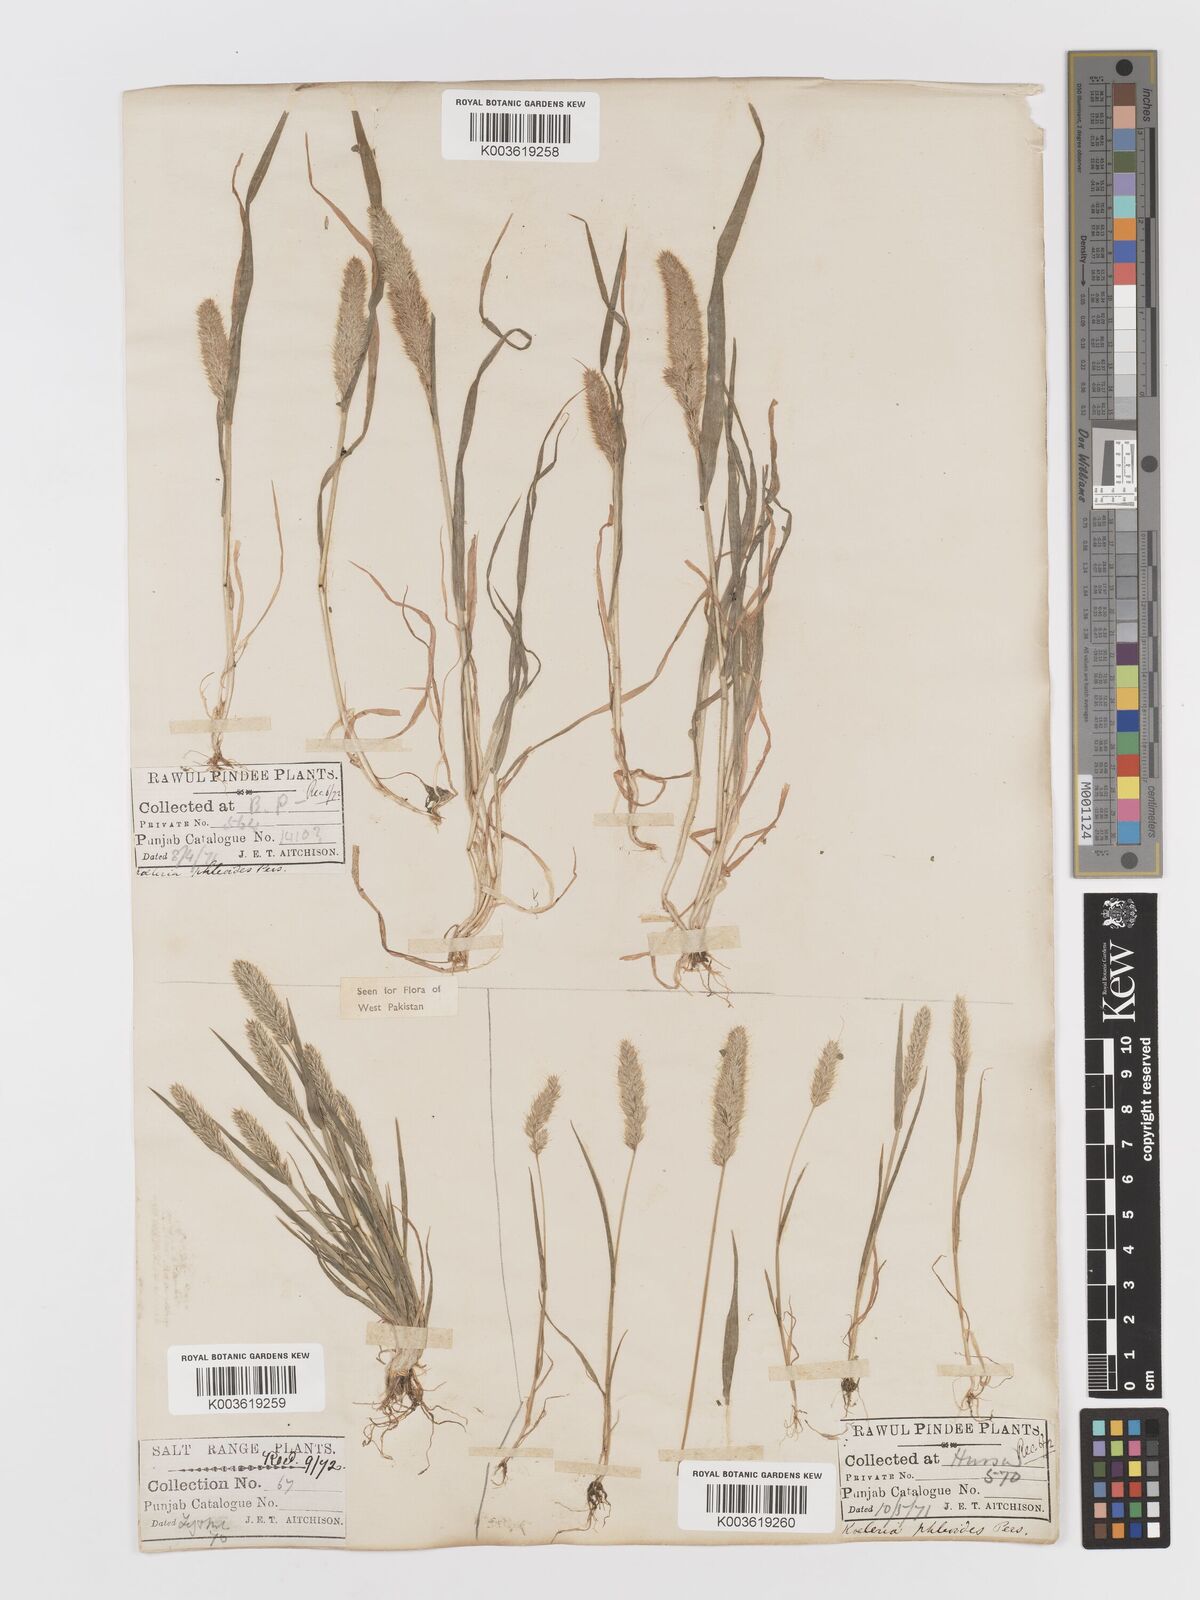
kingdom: Plantae
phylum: Tracheophyta
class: Liliopsida
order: Poales
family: Poaceae
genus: Rostraria
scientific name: Rostraria cristata
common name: Mediterranean hair-grass
